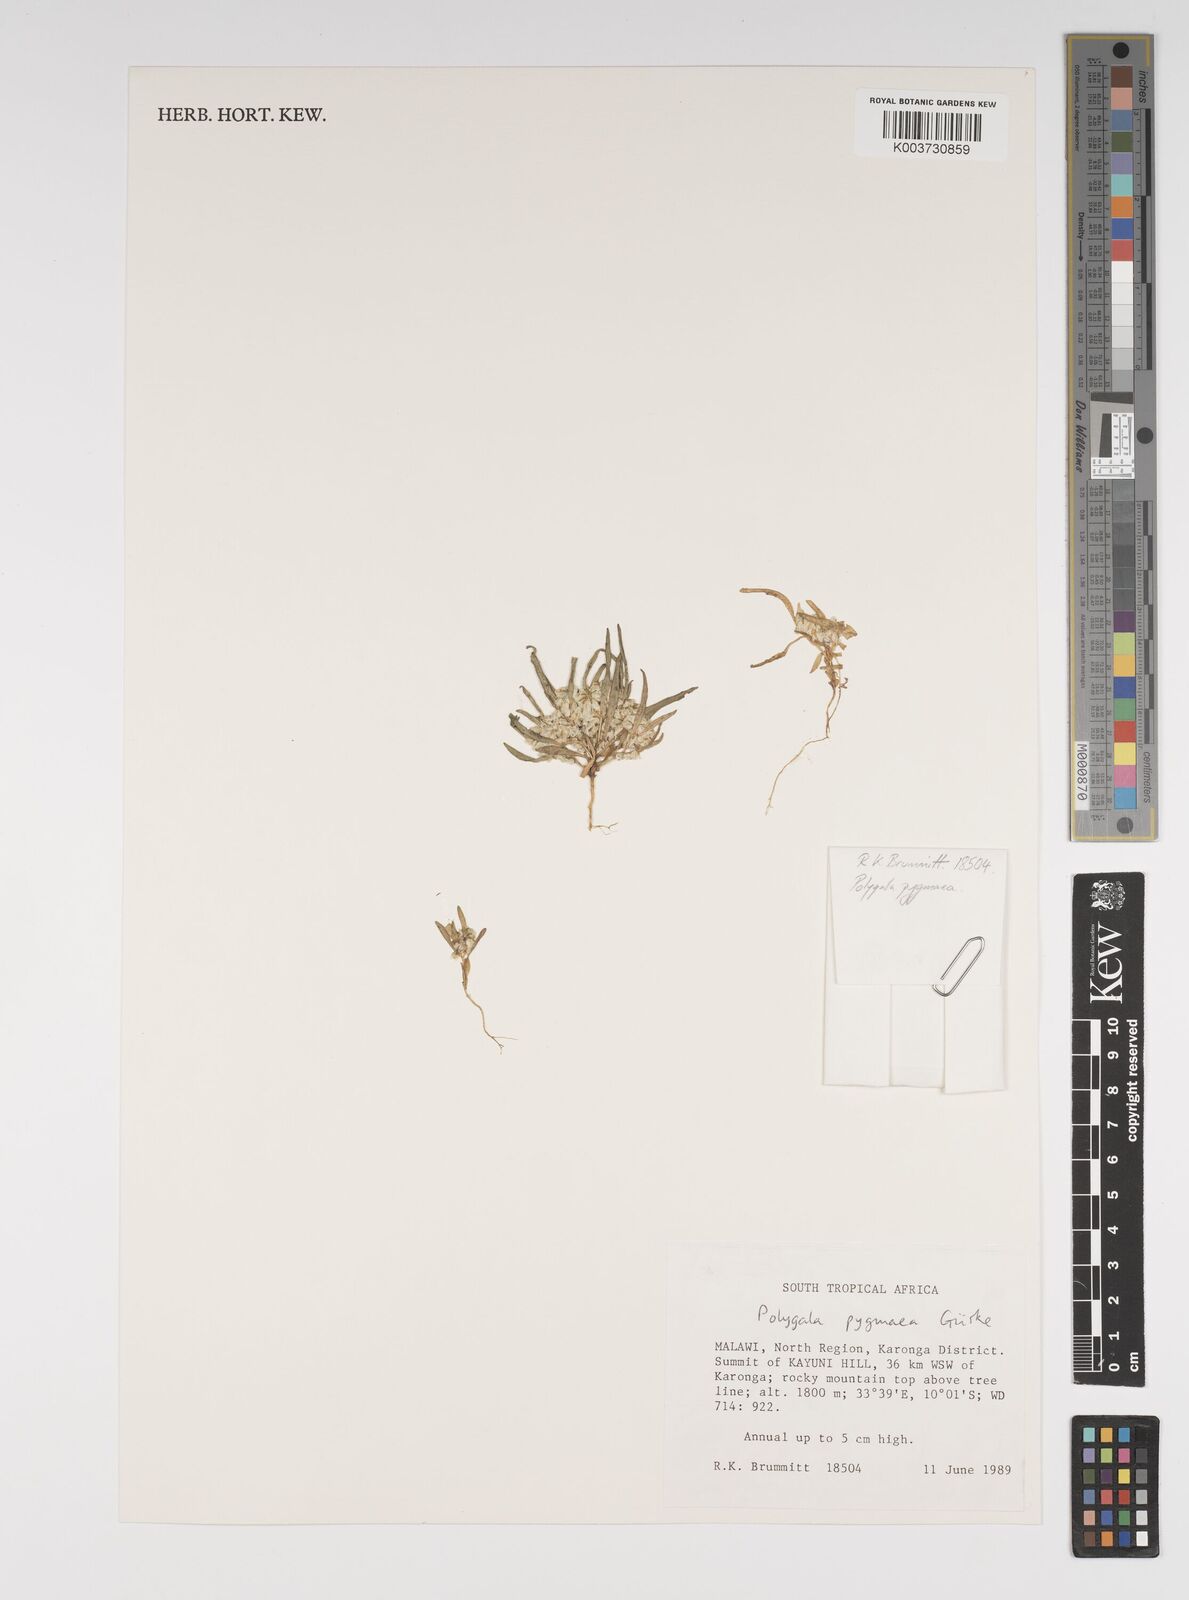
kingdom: Plantae
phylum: Tracheophyta
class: Magnoliopsida
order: Fabales
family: Polygalaceae
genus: Polygala
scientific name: Polygala welwitschii
